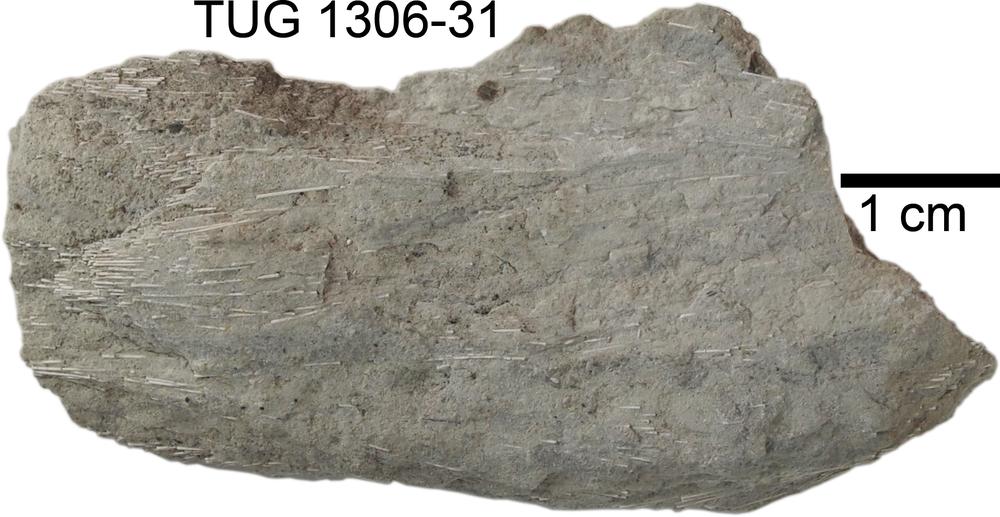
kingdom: Animalia
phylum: Porifera
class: Hexactinellida
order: Lyssacinosida
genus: Pyritonema
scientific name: Pyritonema
